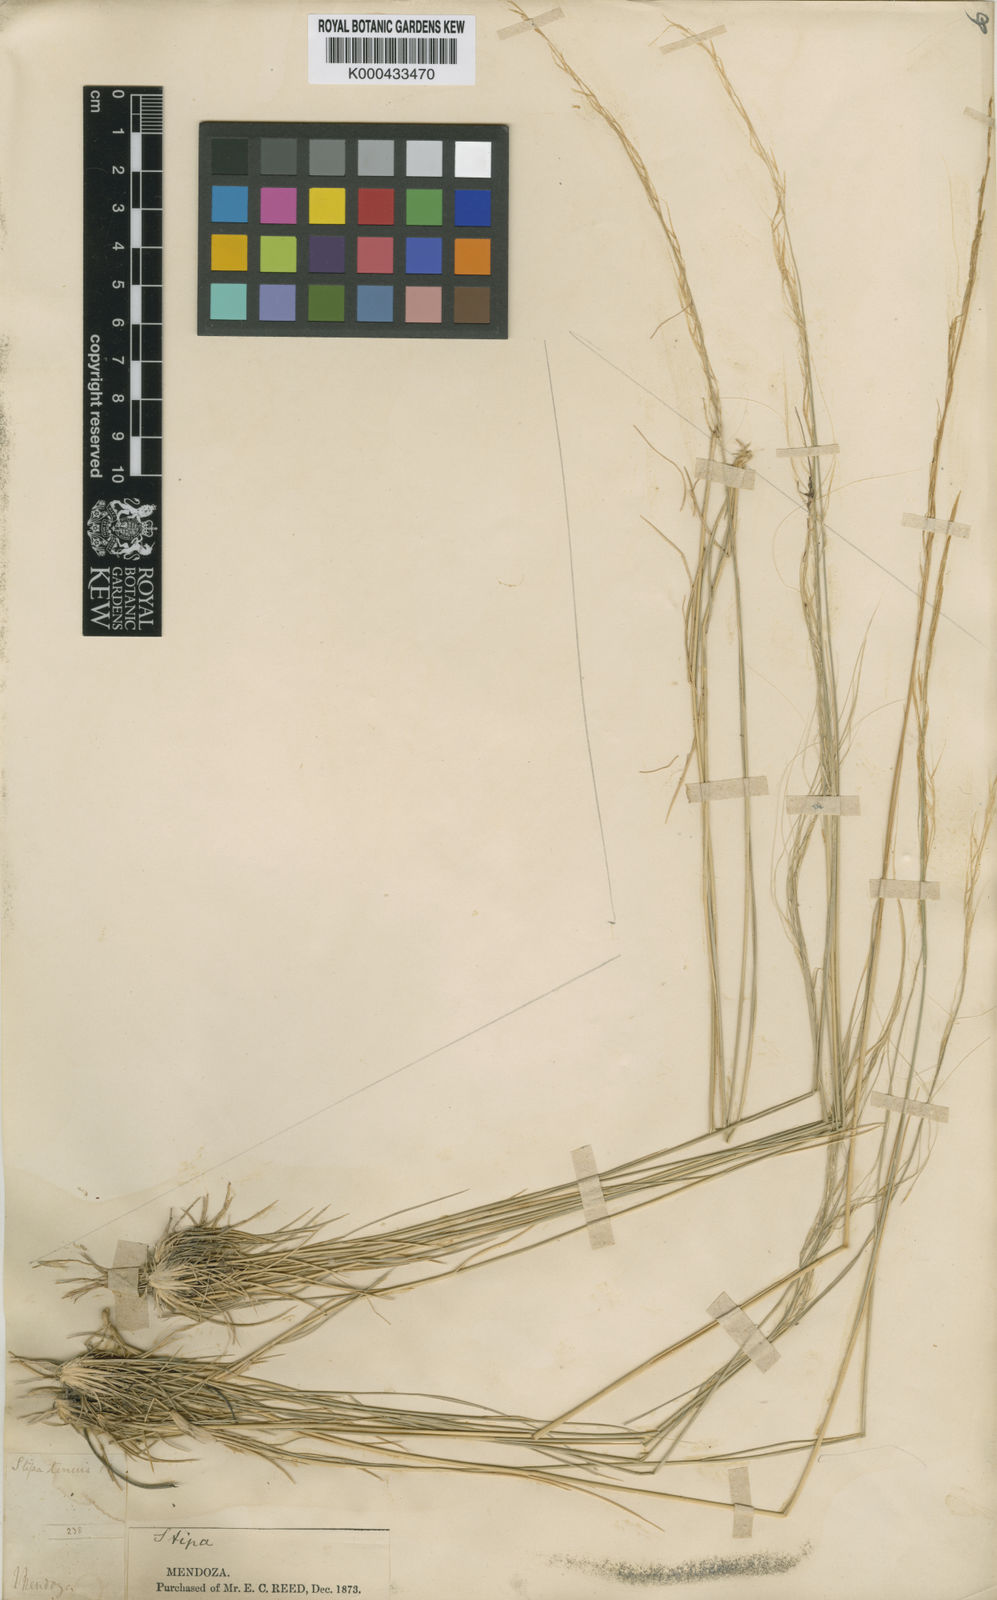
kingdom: Plantae
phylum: Tracheophyta
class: Liliopsida
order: Poales
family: Poaceae
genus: Nassella
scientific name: Nassella tenuis
